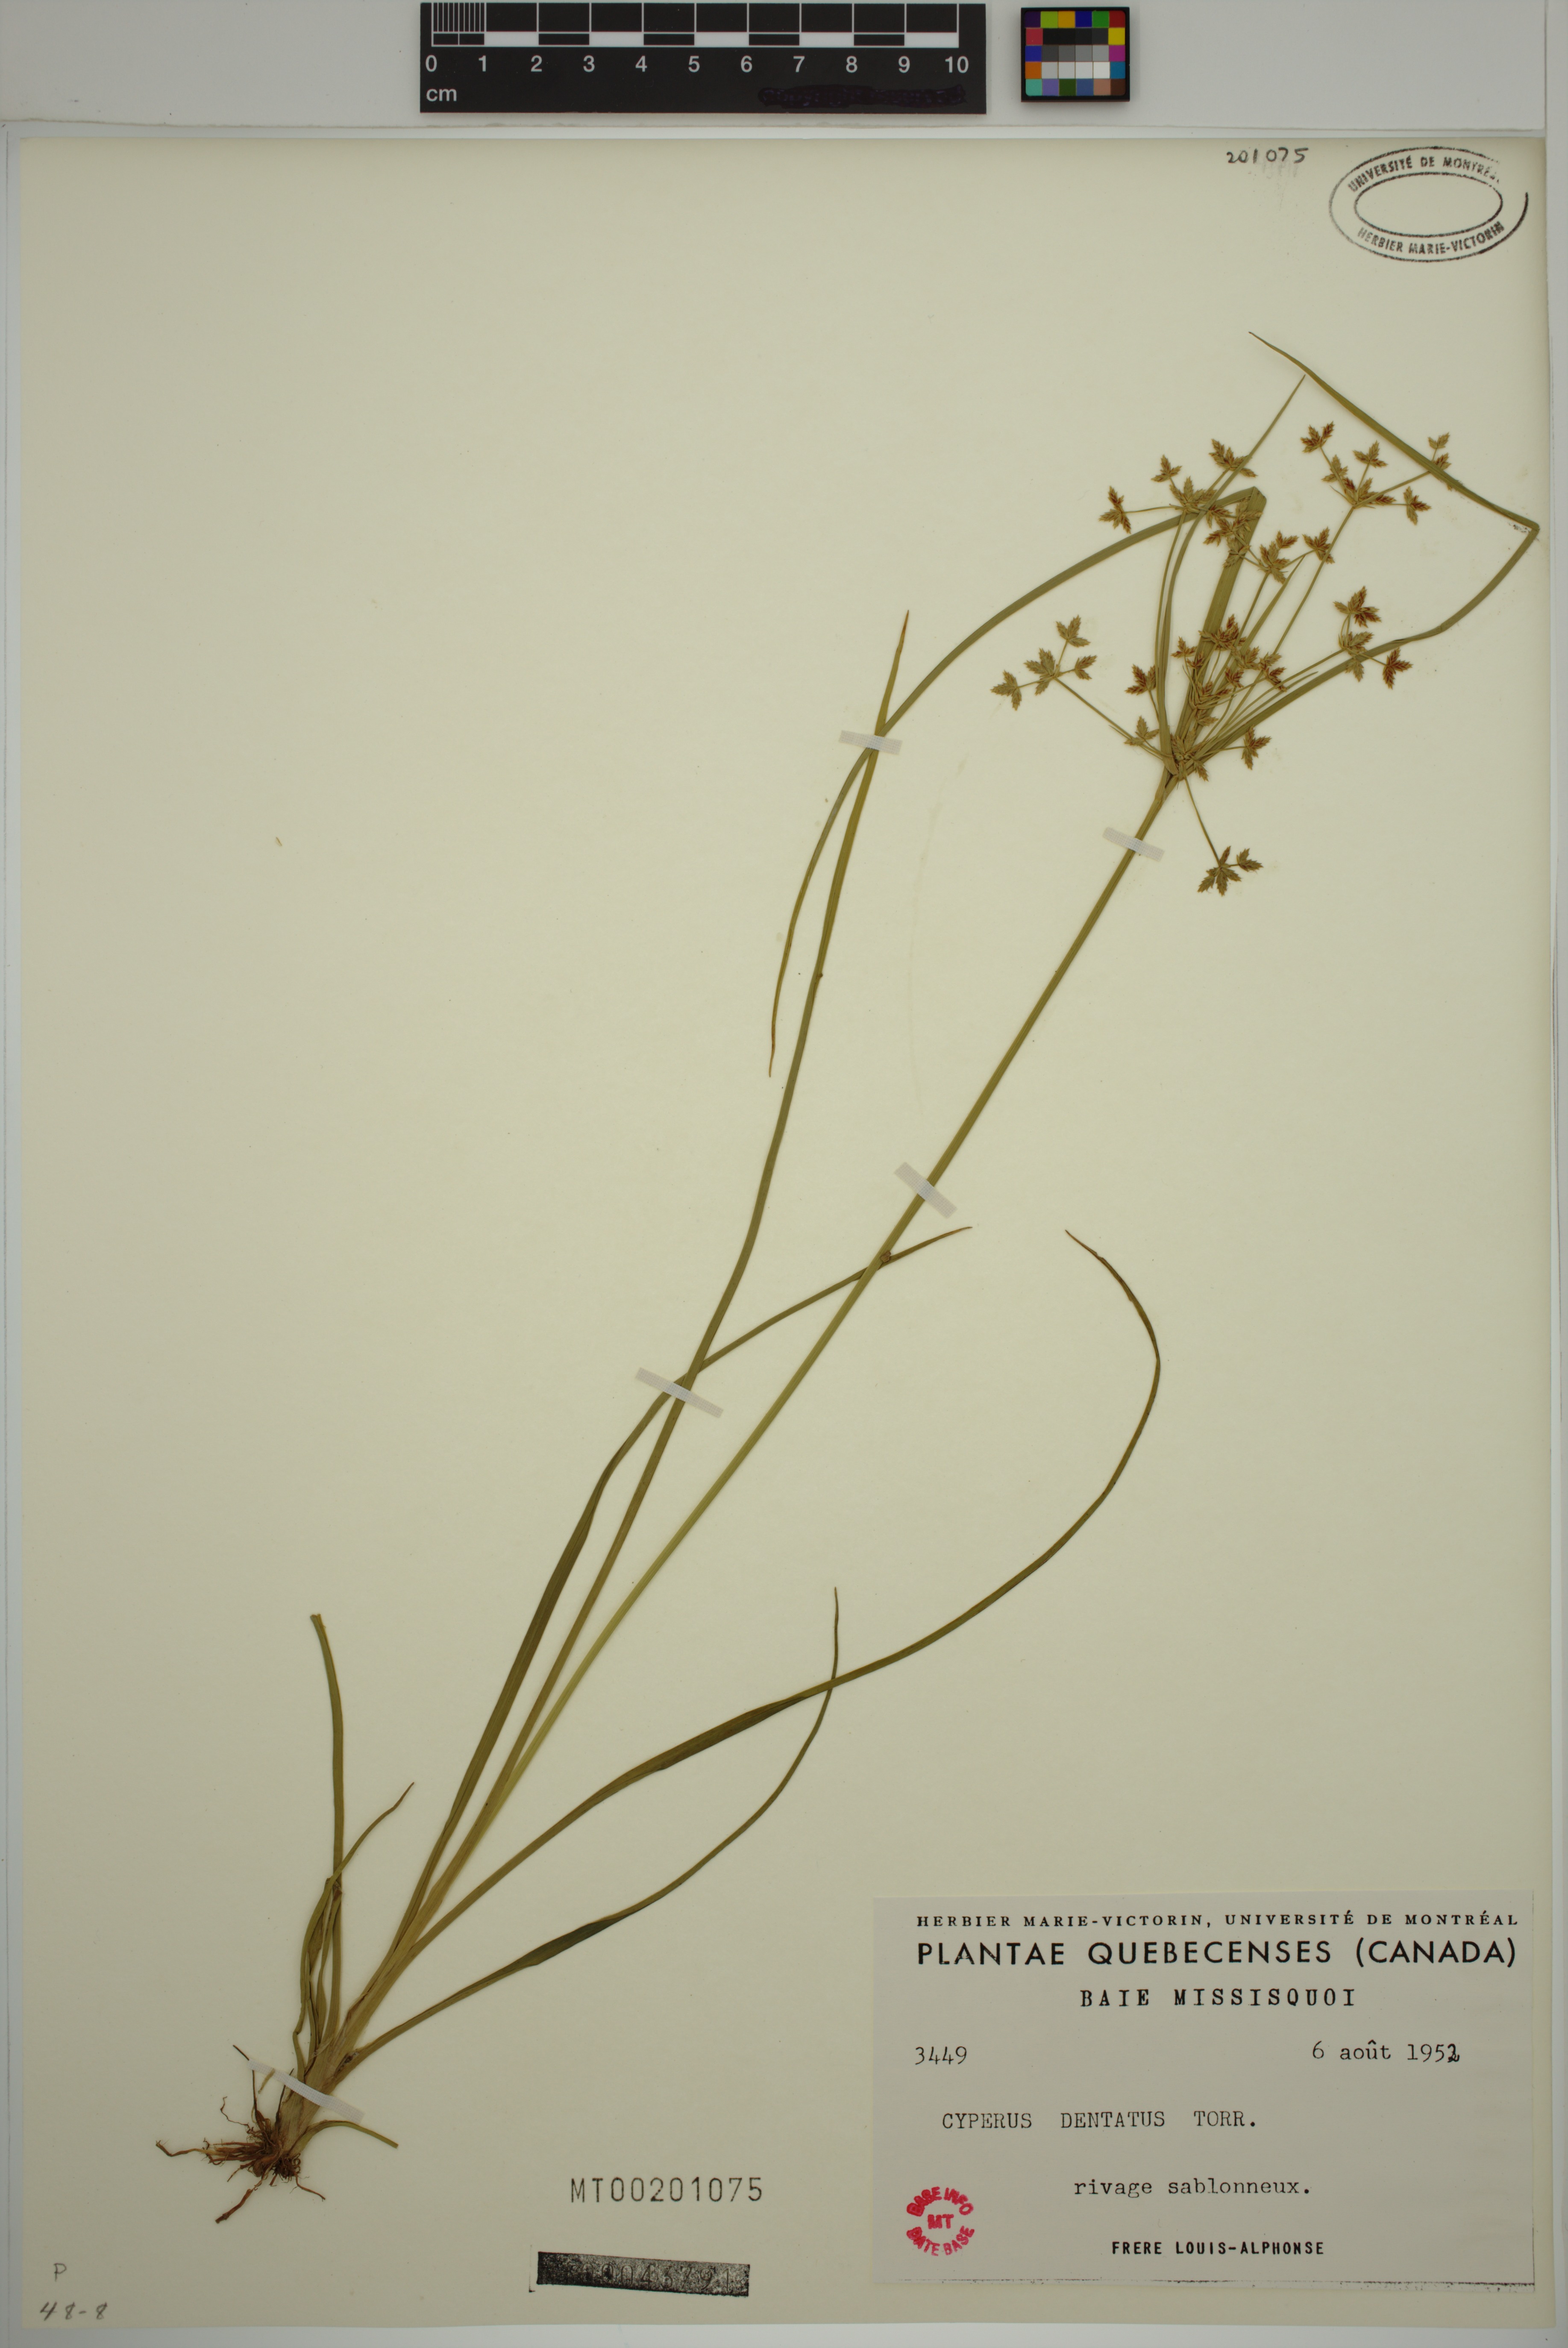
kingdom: Plantae
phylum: Tracheophyta
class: Liliopsida
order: Poales
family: Cyperaceae
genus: Cyperus
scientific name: Cyperus dentatus
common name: Dentate umbrella sedge
